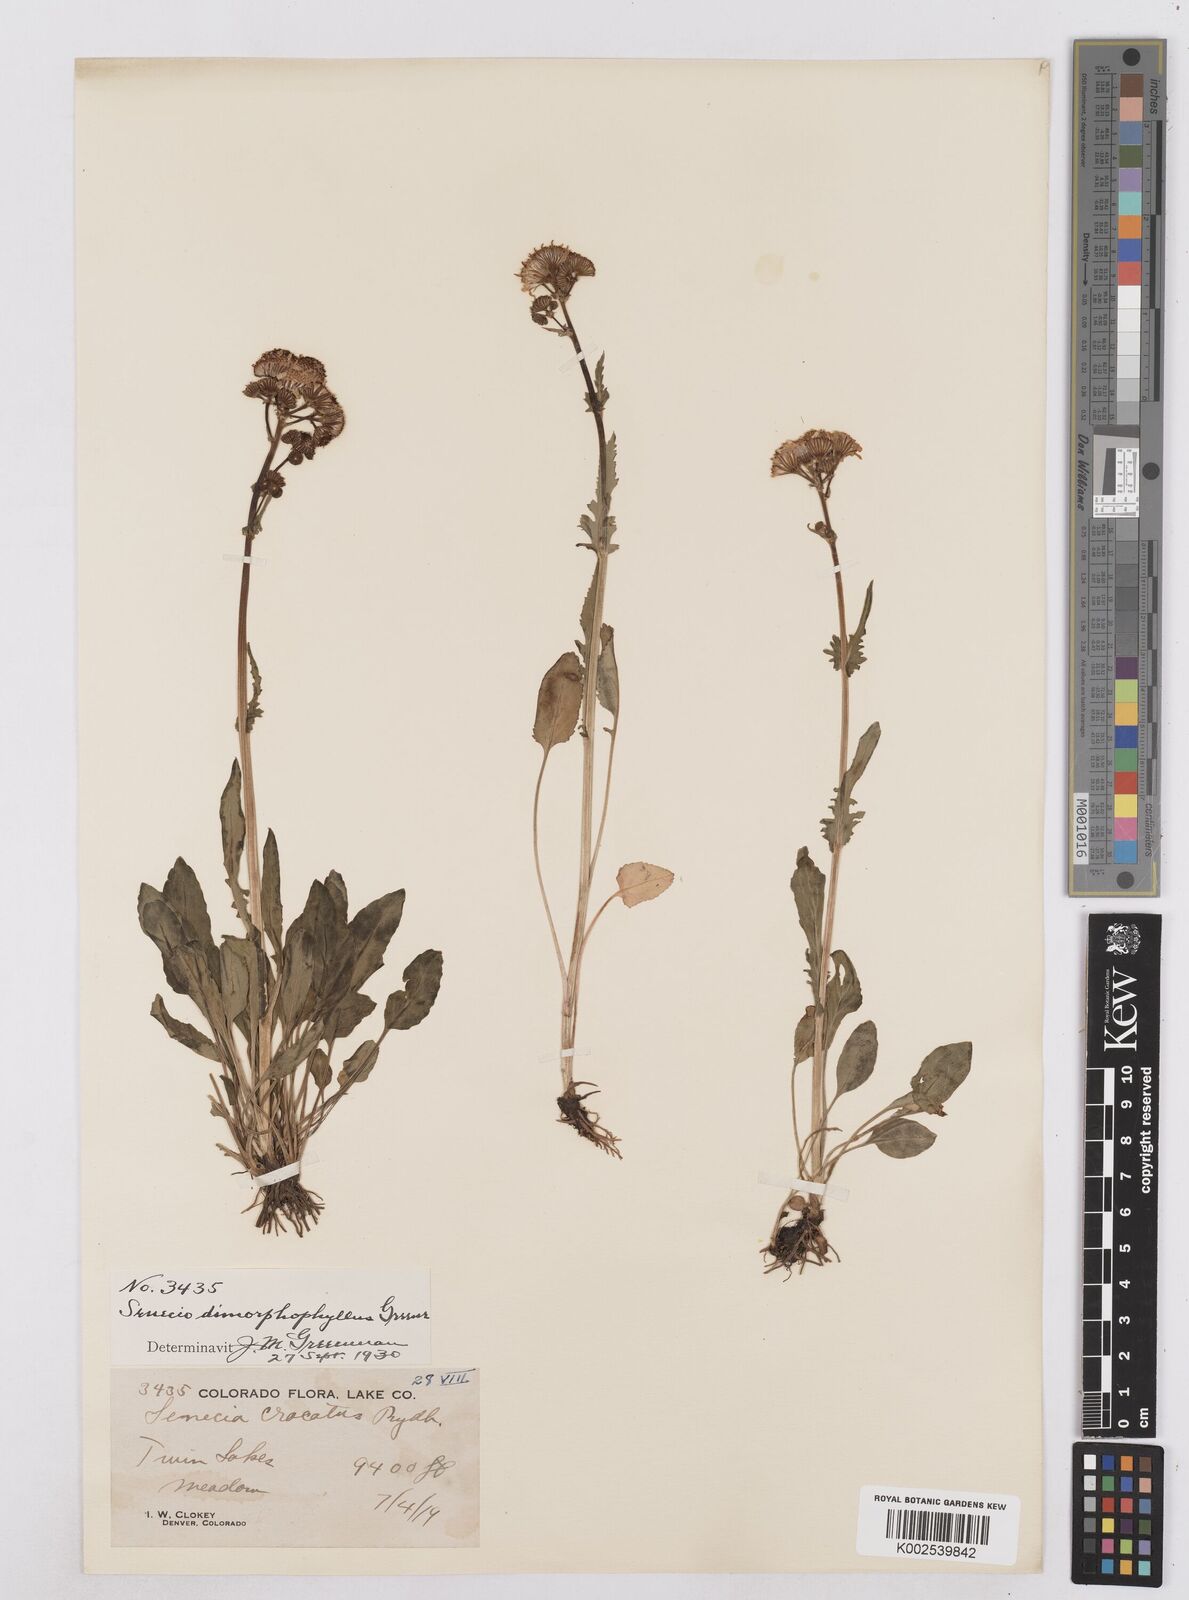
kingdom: Plantae
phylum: Tracheophyta
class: Magnoliopsida
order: Asterales
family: Asteraceae
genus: Packera
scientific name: Packera dimorphophylla
